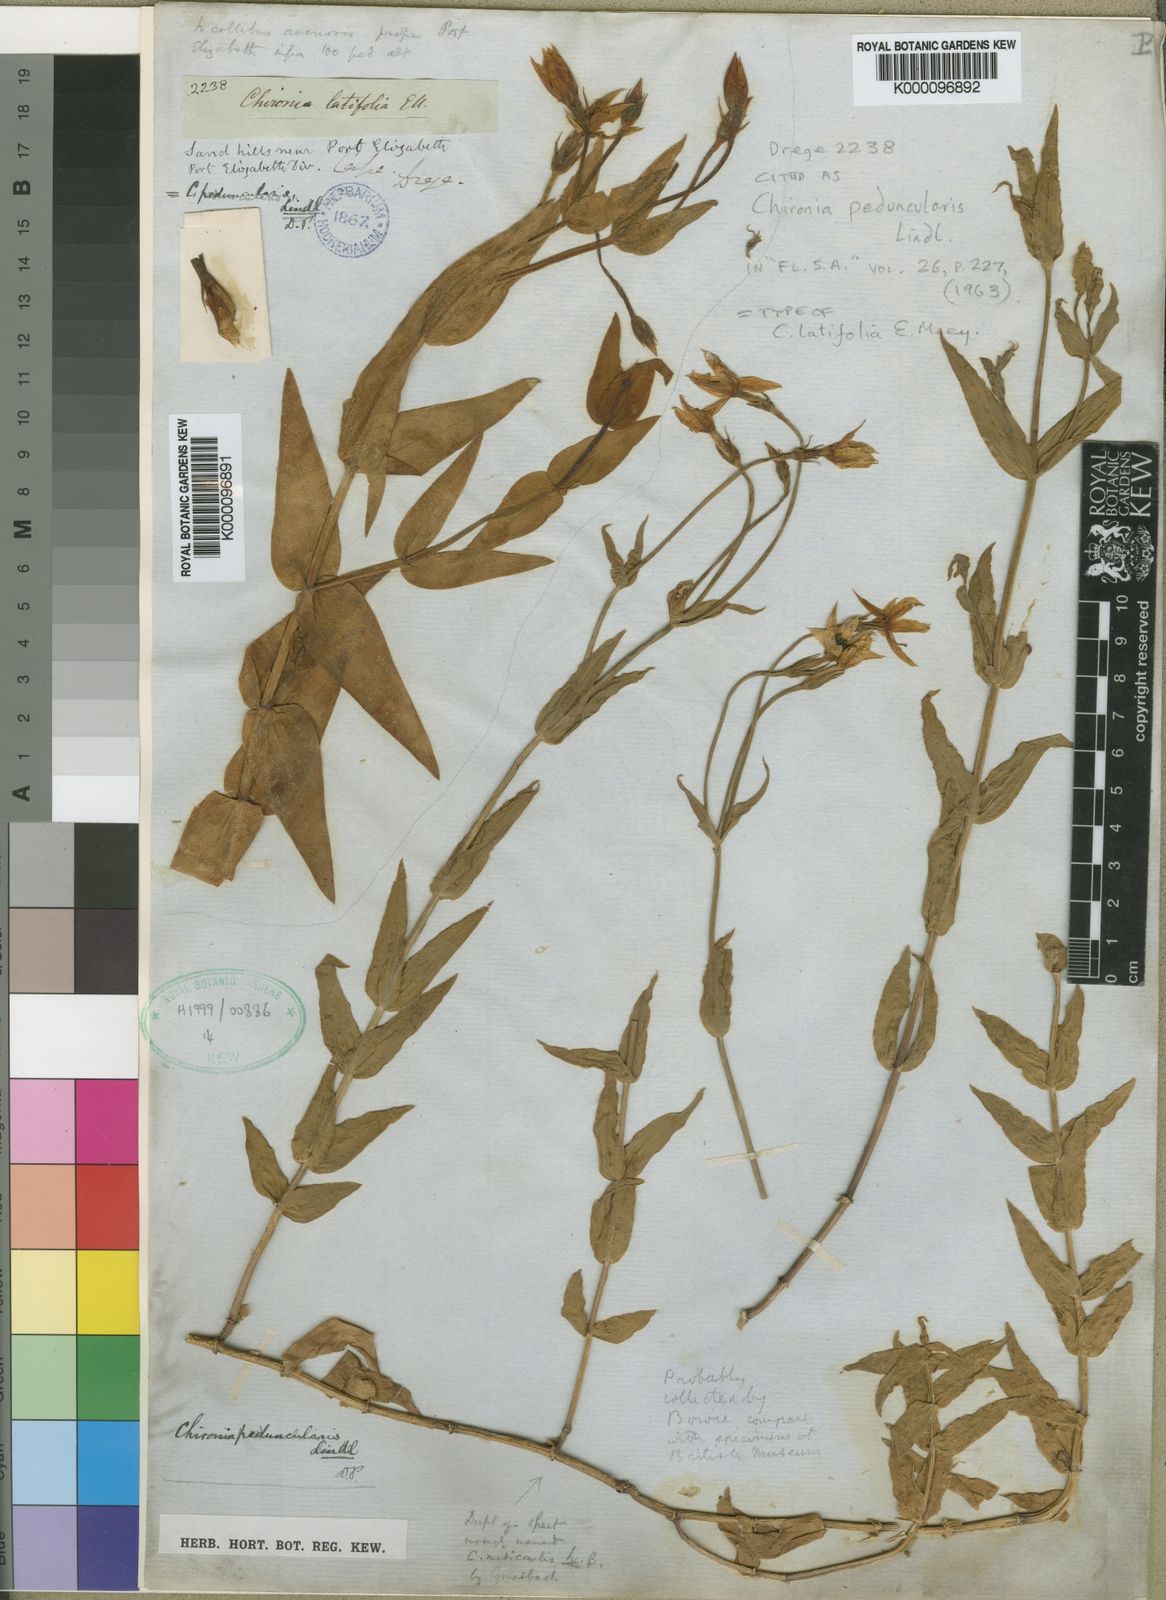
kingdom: Plantae
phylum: Tracheophyta
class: Magnoliopsida
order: Gentianales
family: Gentianaceae
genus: Chironia
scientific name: Chironia peduncularis
